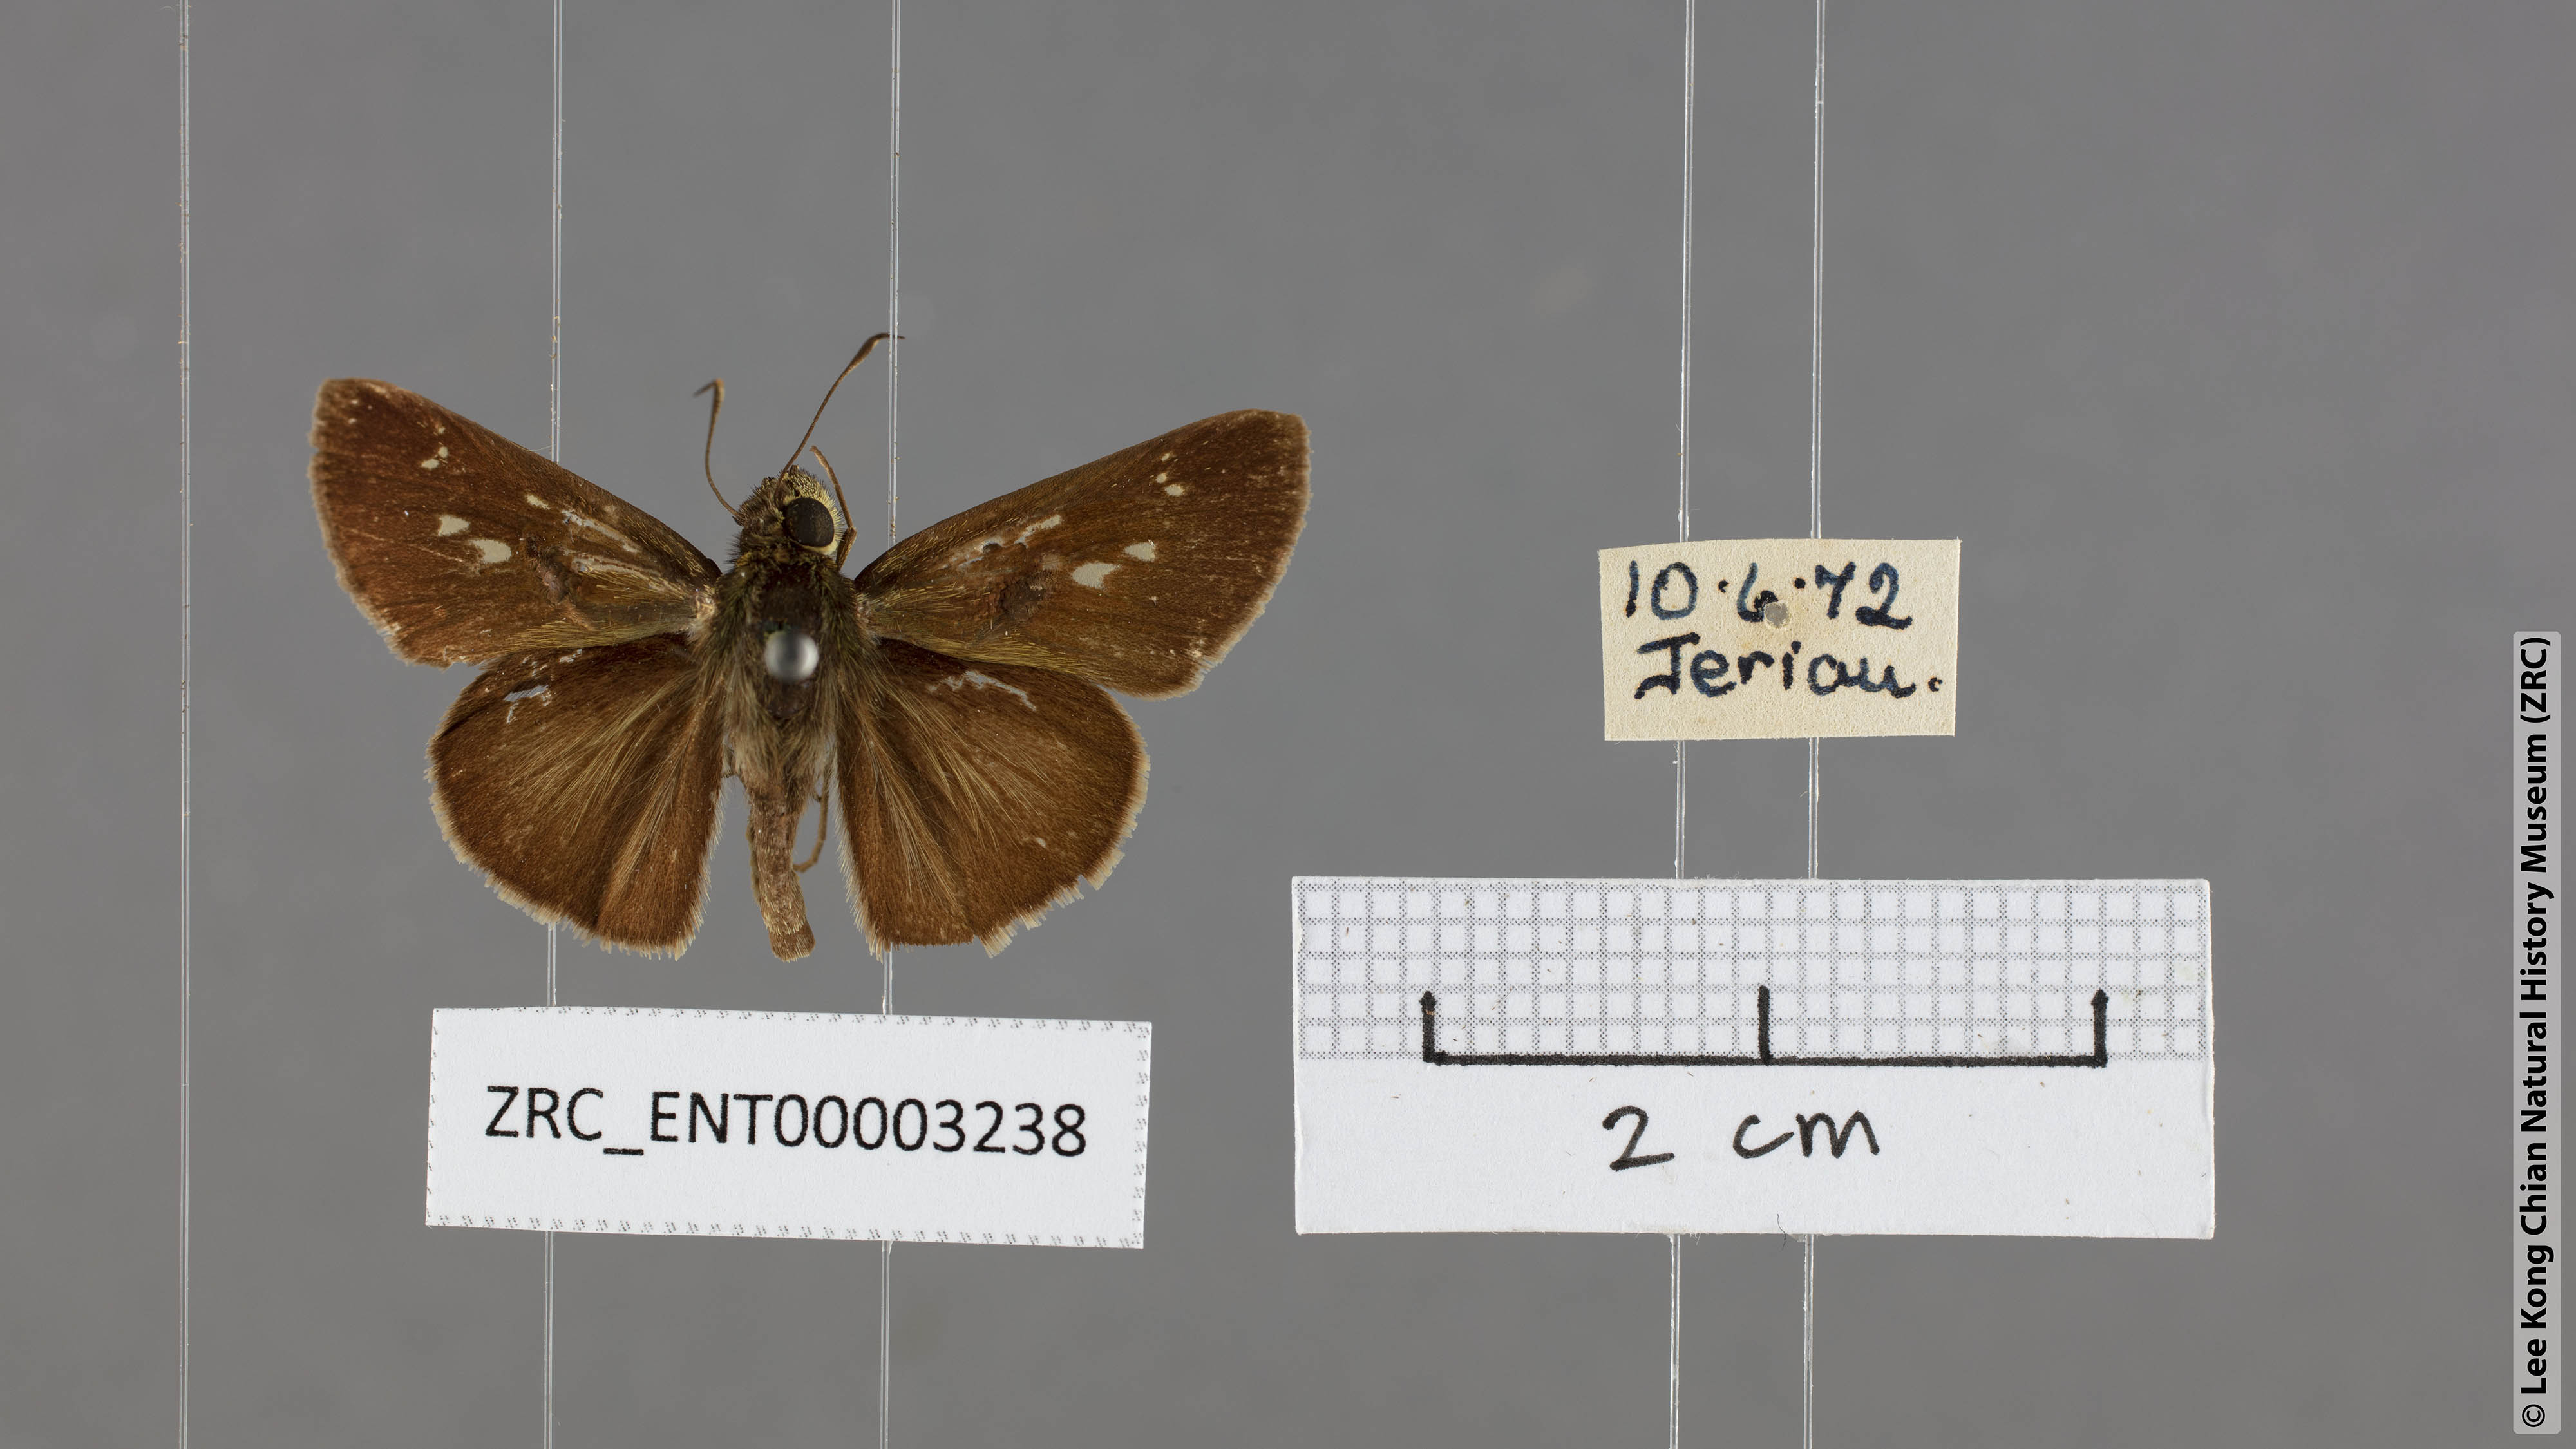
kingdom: Animalia
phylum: Arthropoda
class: Insecta
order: Lepidoptera
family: Hesperiidae
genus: Halpe
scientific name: Halpe pelethronix
